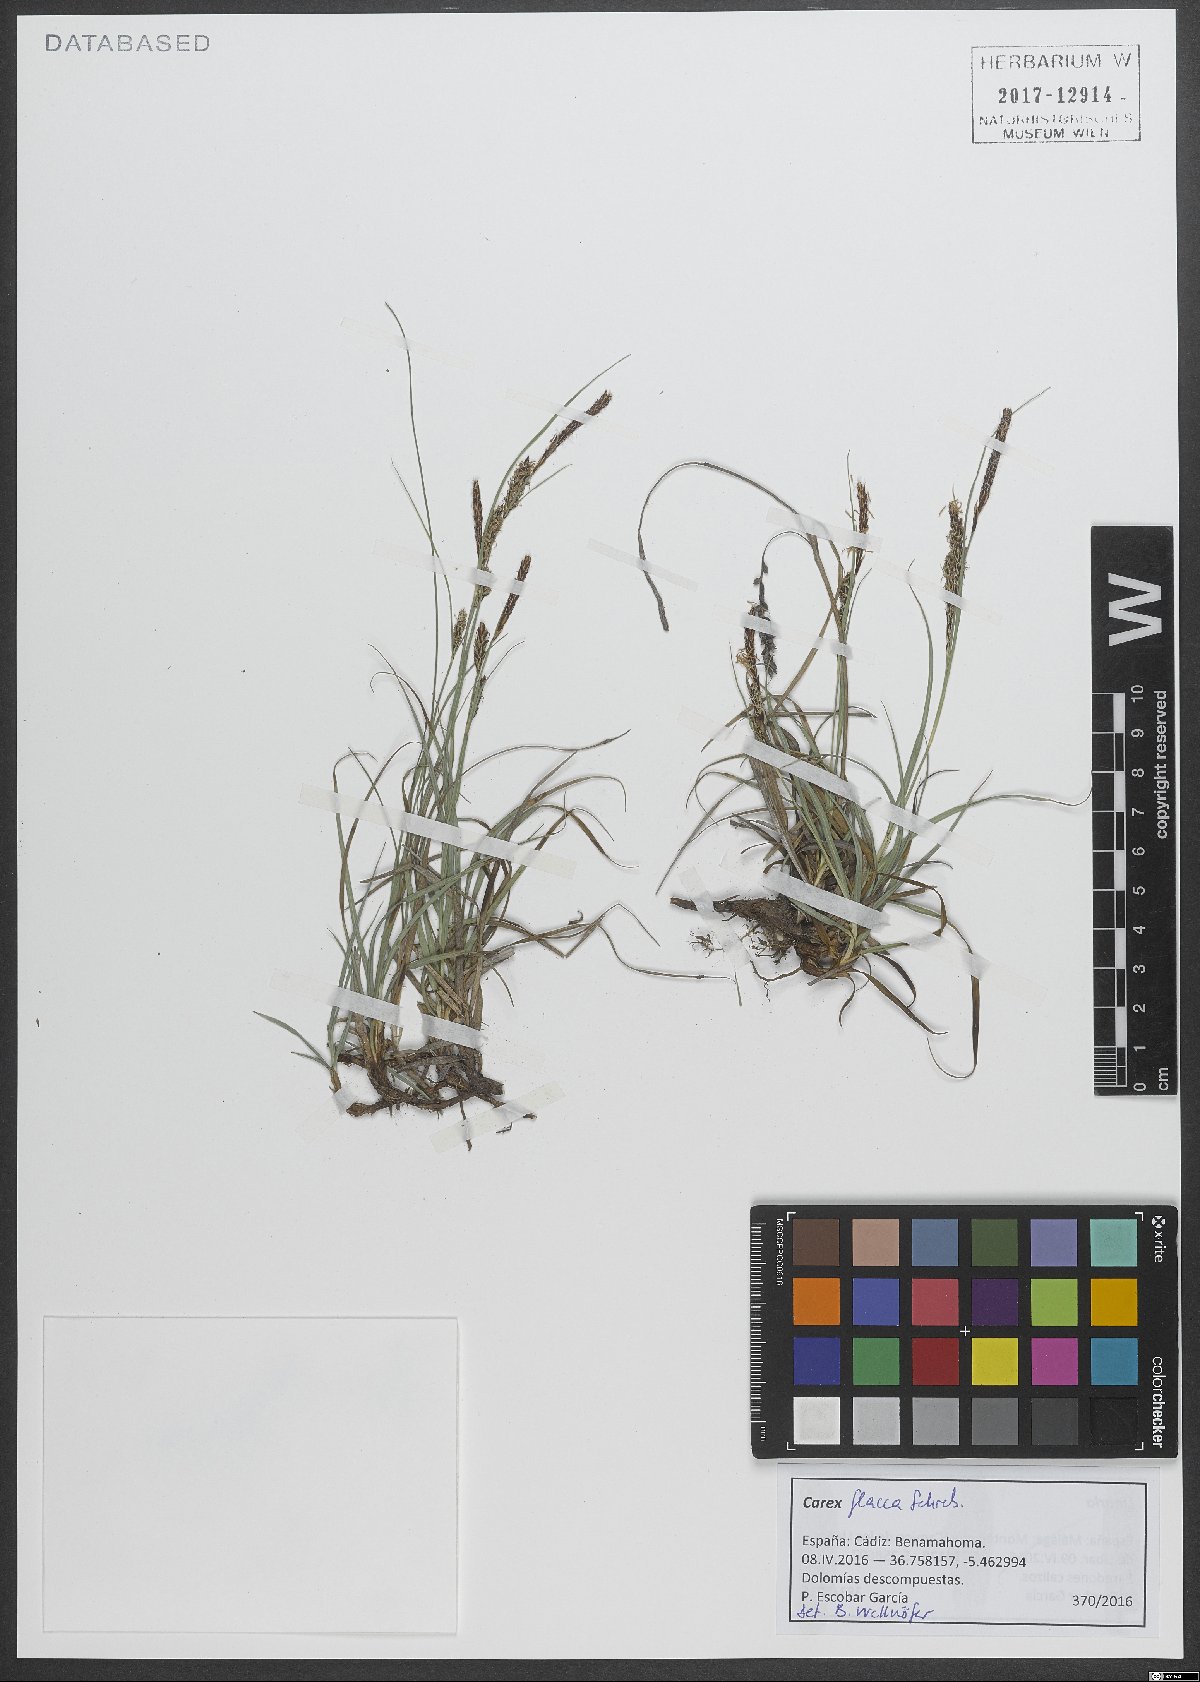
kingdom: Plantae
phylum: Tracheophyta
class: Liliopsida
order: Poales
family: Cyperaceae
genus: Carex
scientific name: Carex flacca
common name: Glaucous sedge
